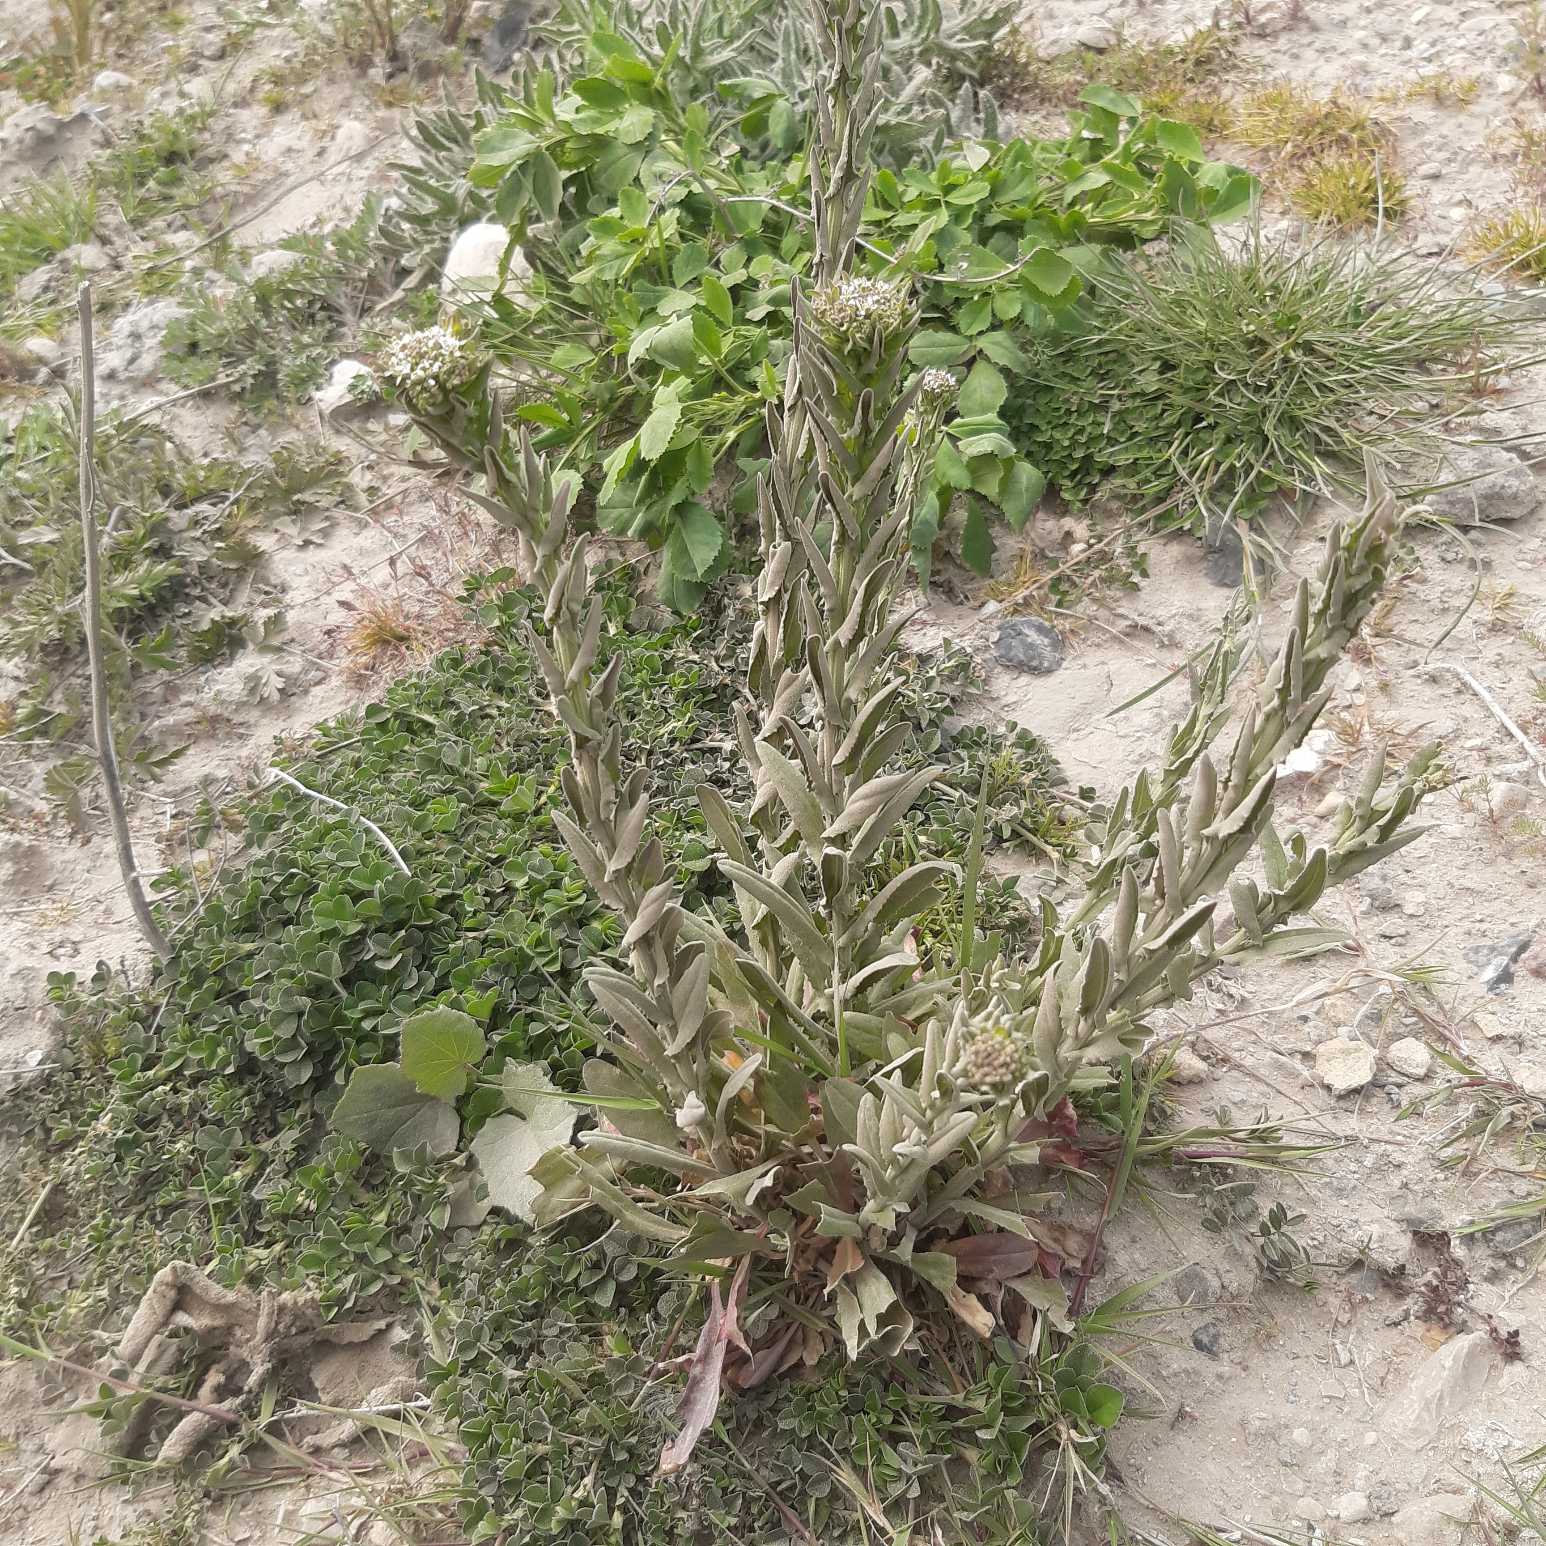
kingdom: Plantae
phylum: Tracheophyta
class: Magnoliopsida
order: Brassicales
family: Brassicaceae
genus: Lepidium
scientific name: Lepidium heterophyllum
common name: Forskelligbladet karse
